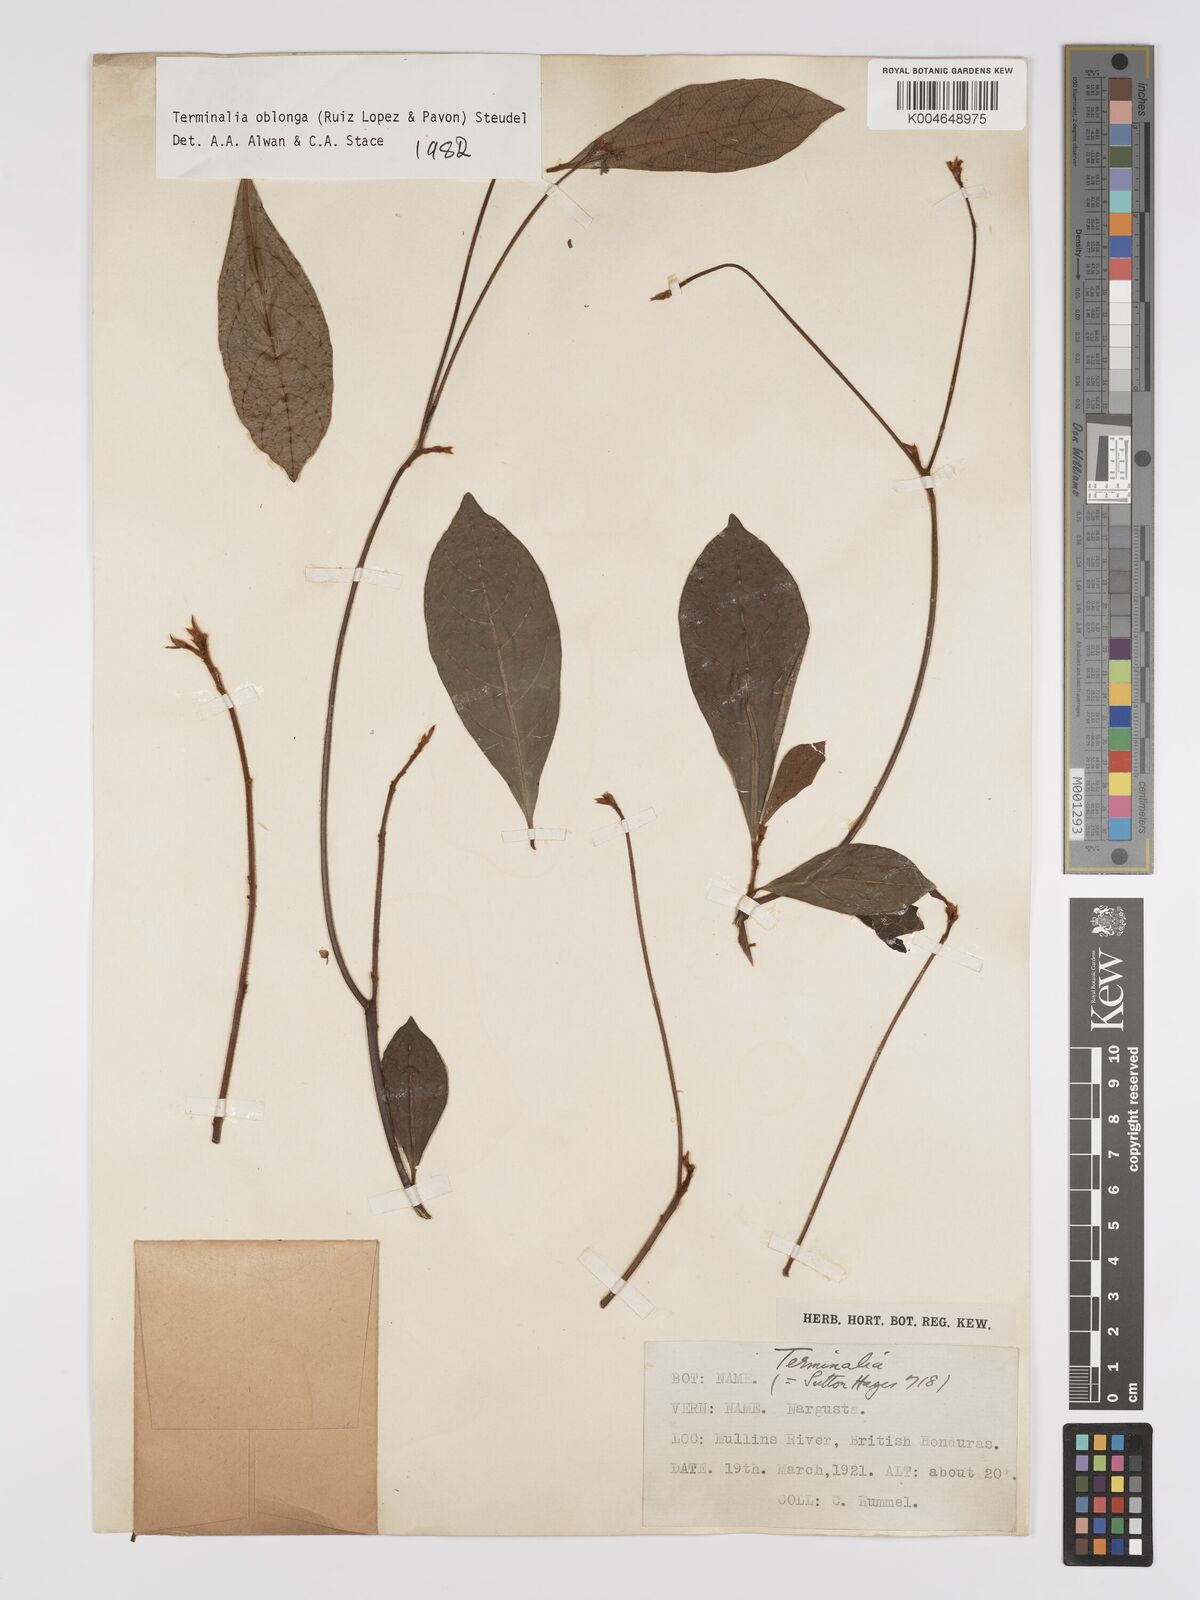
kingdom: Plantae
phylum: Tracheophyta
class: Magnoliopsida
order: Myrtales
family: Combretaceae
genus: Terminalia
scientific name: Terminalia oblonga
